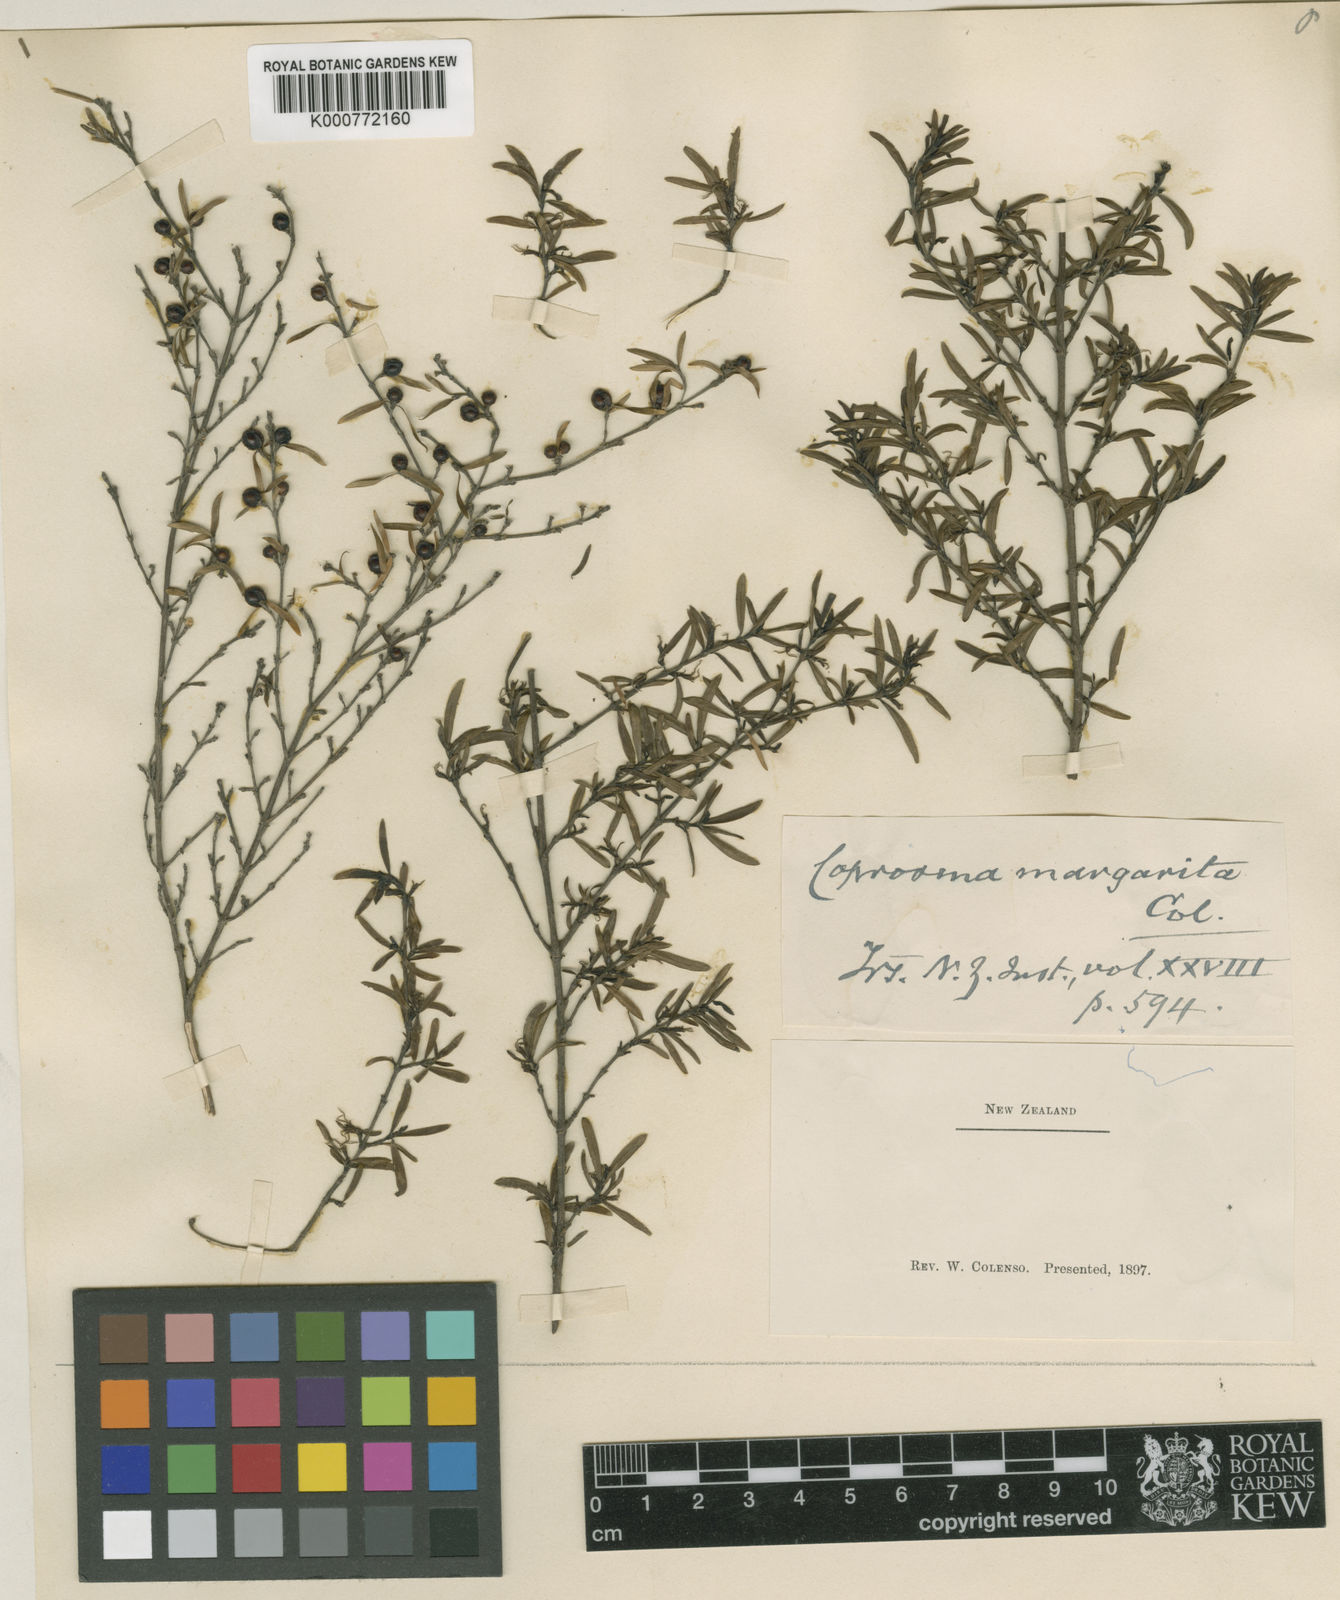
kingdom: Plantae
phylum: Tracheophyta
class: Magnoliopsida
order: Gentianales
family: Rubiaceae
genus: Coprosma
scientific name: Coprosma microcarpa
